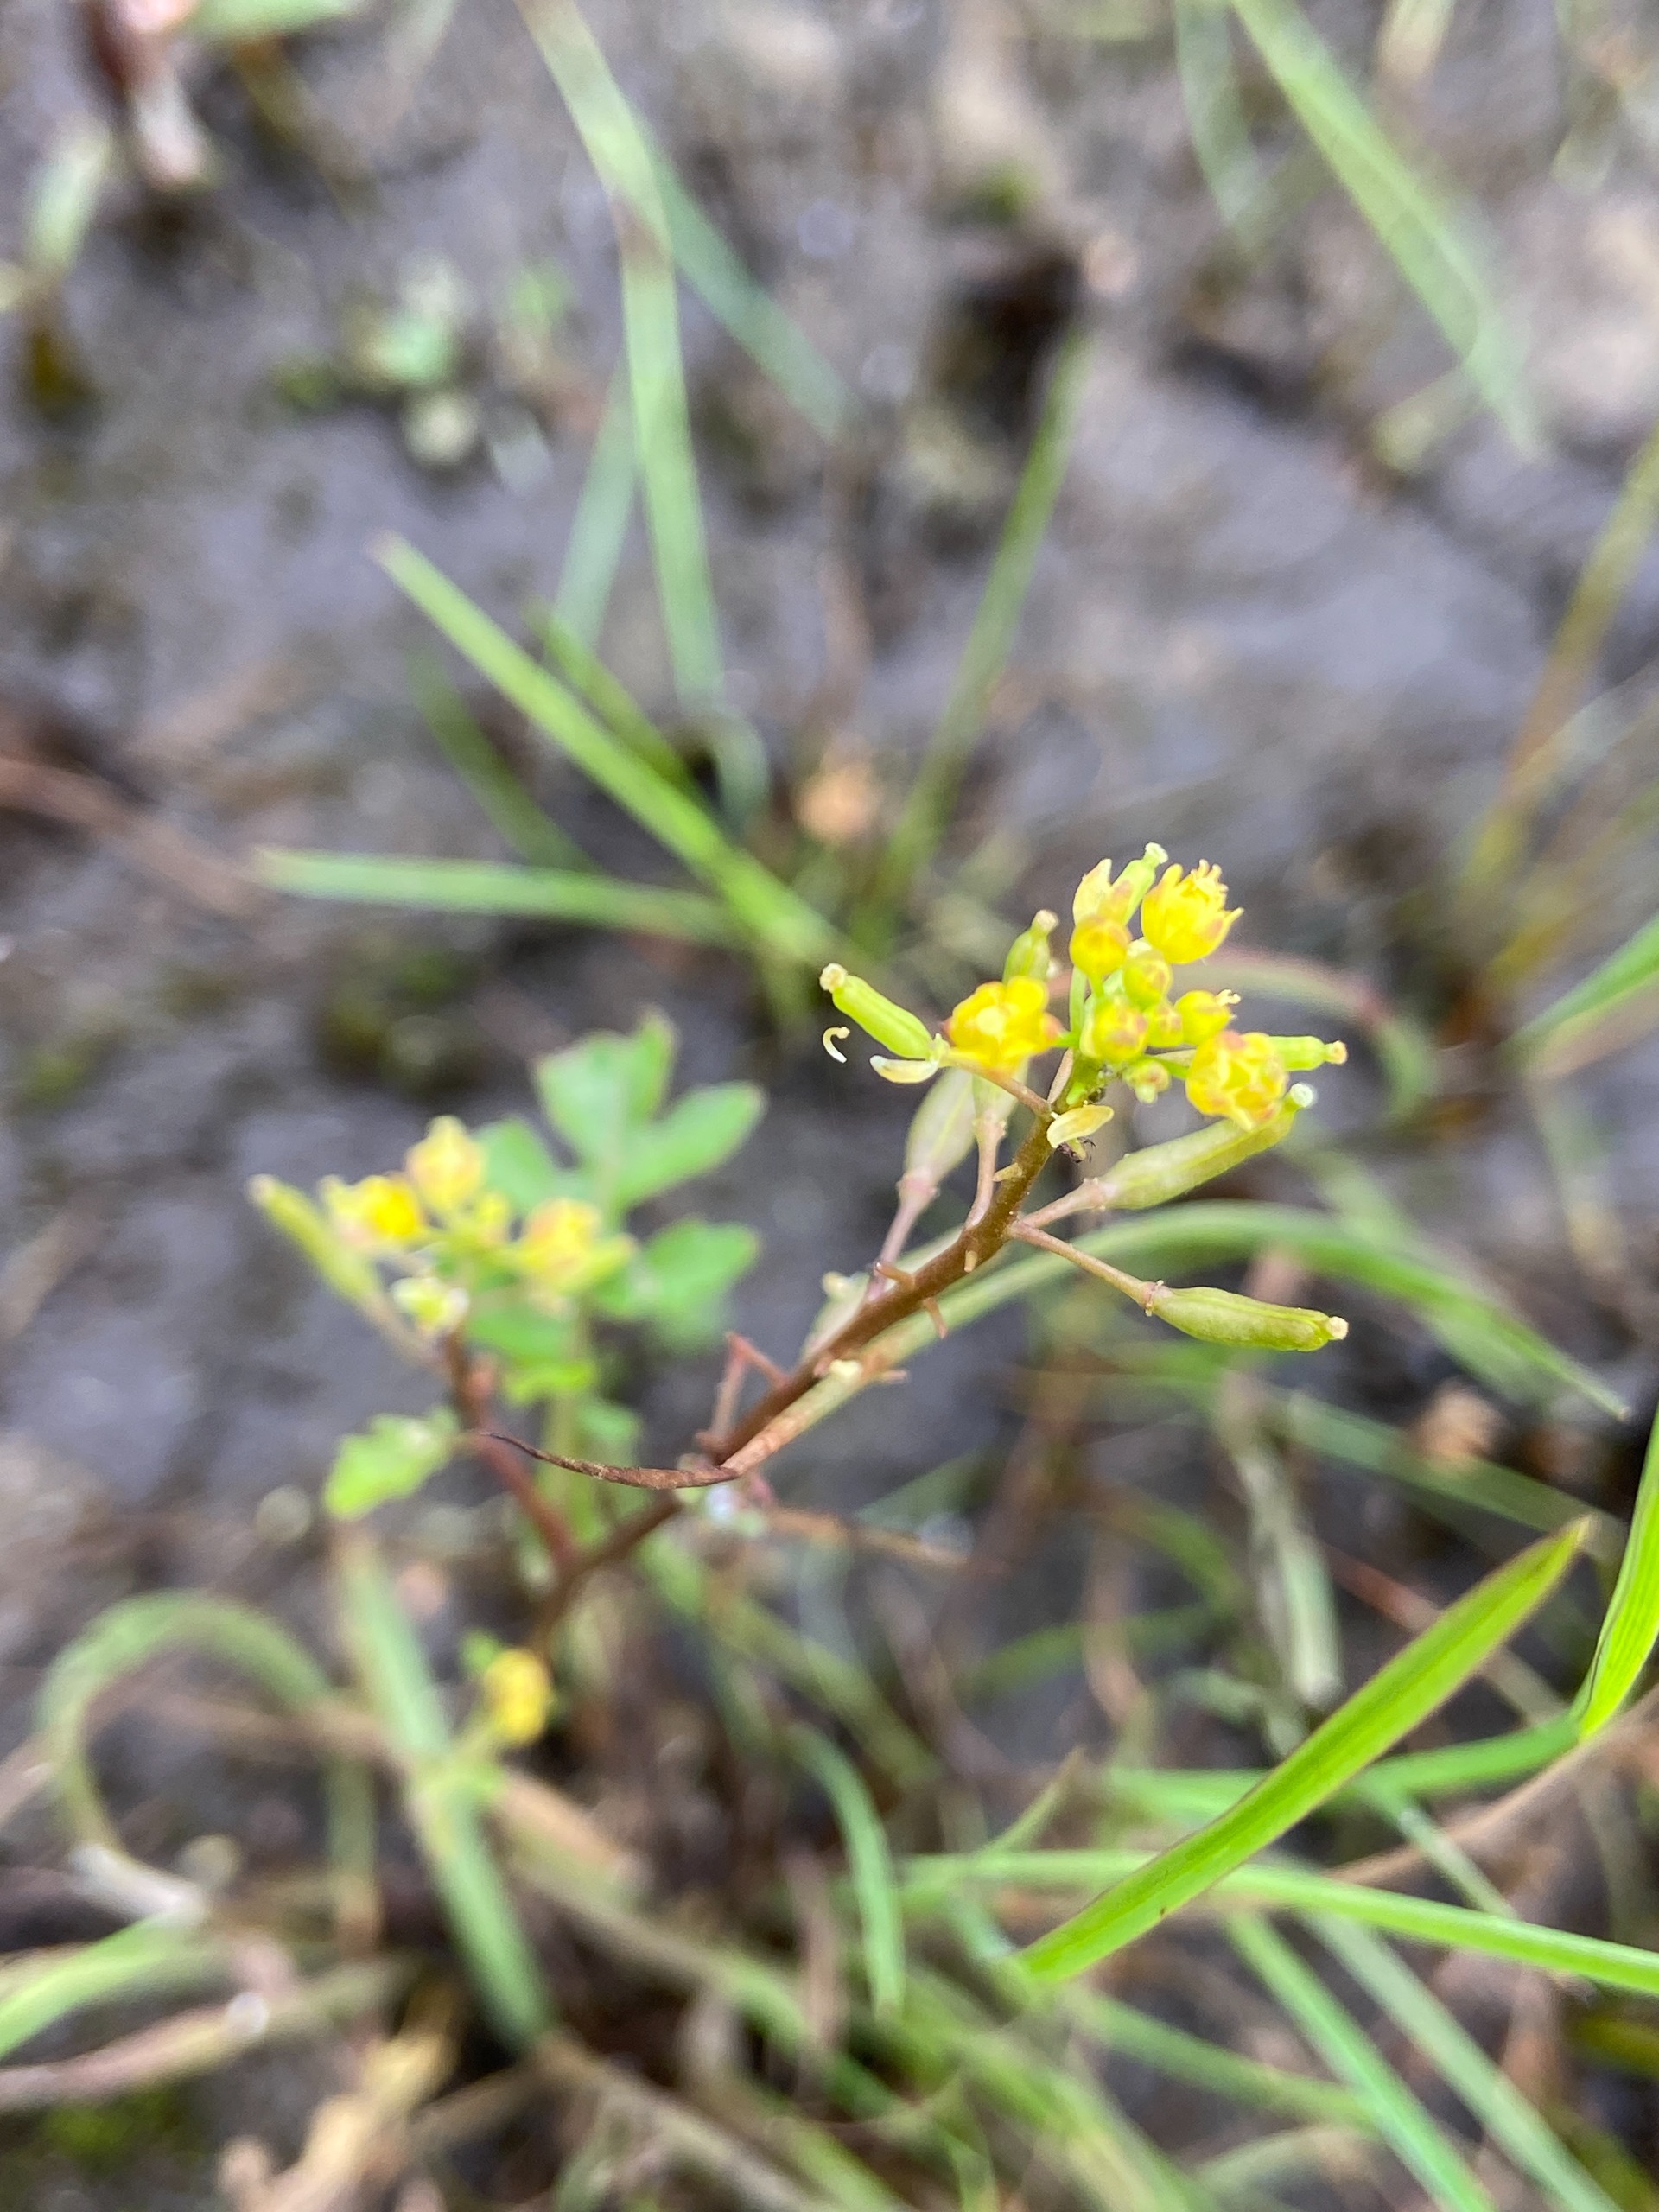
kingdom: Plantae
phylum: Tracheophyta
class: Magnoliopsida
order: Brassicales
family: Brassicaceae
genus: Rorippa
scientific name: Rorippa palustris
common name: Kær-guldkarse
